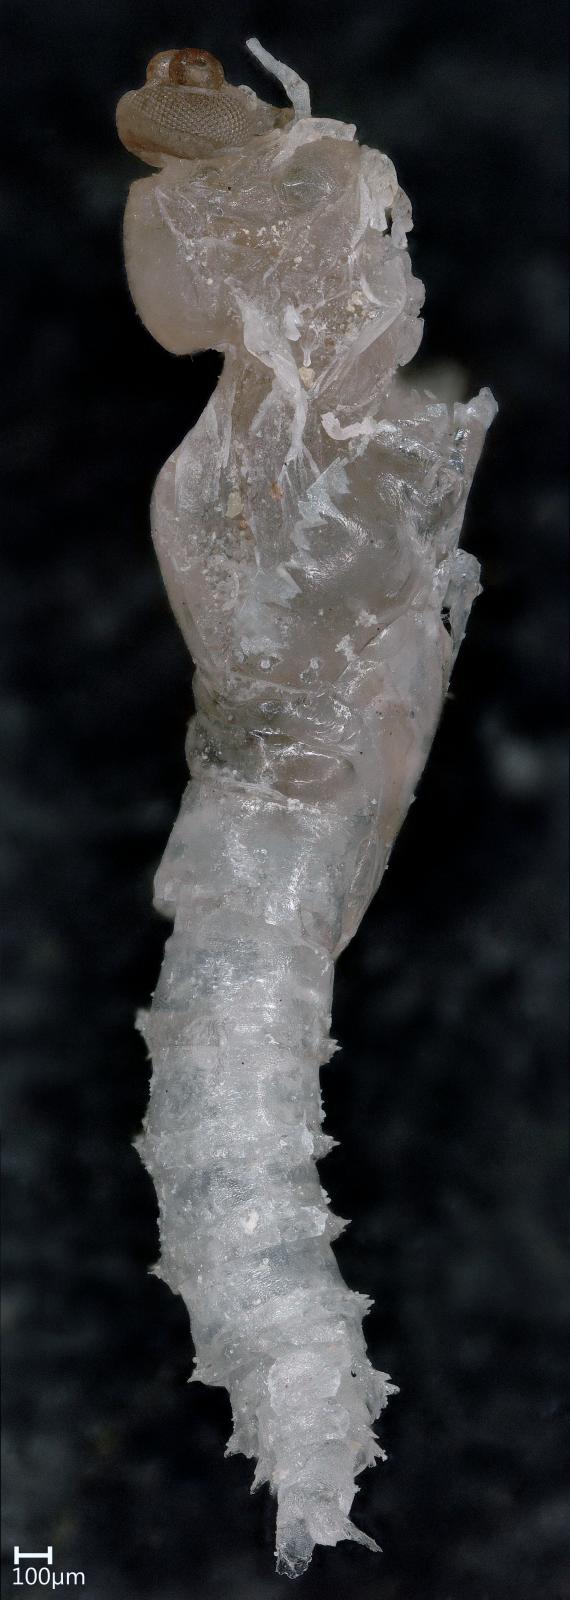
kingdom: Animalia
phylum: Arthropoda
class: Insecta
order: Diptera
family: Ceratopogonidae
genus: Dasyhelea
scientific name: Dasyhelea australia
